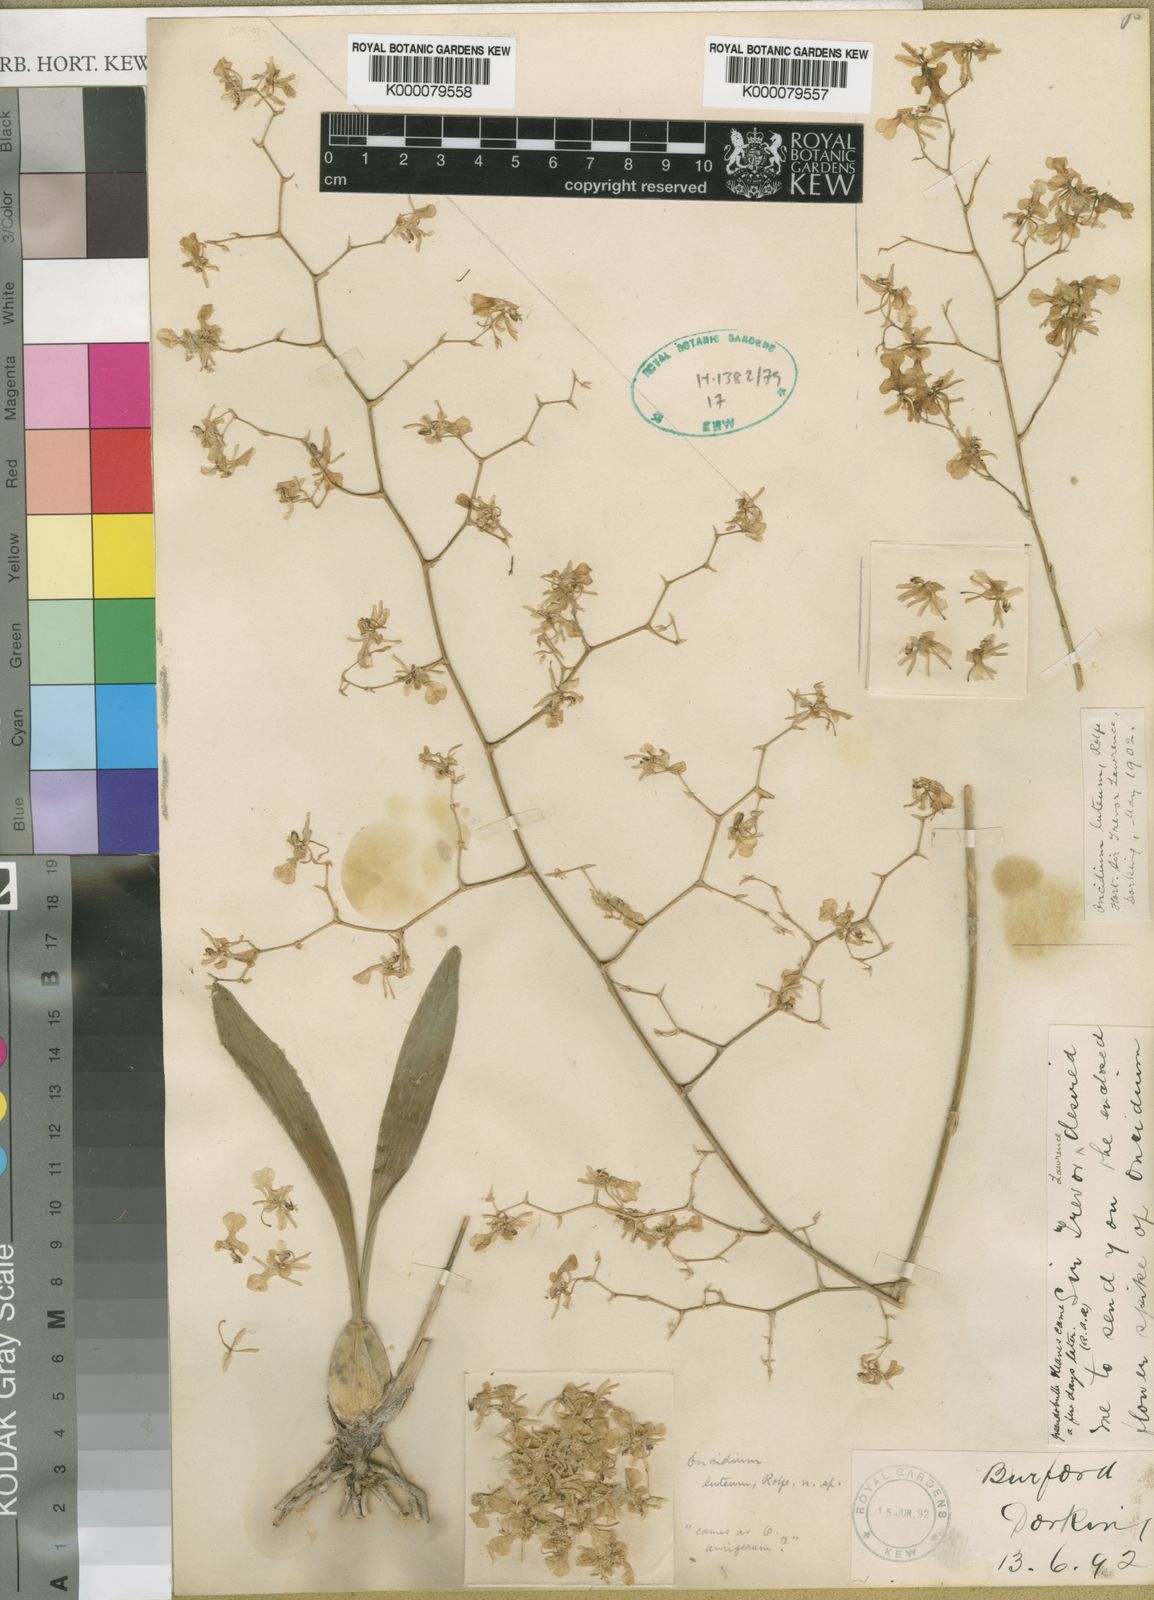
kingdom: Plantae
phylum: Tracheophyta
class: Liliopsida
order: Asparagales
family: Orchidaceae
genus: Oncidium
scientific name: Oncidium luteum
